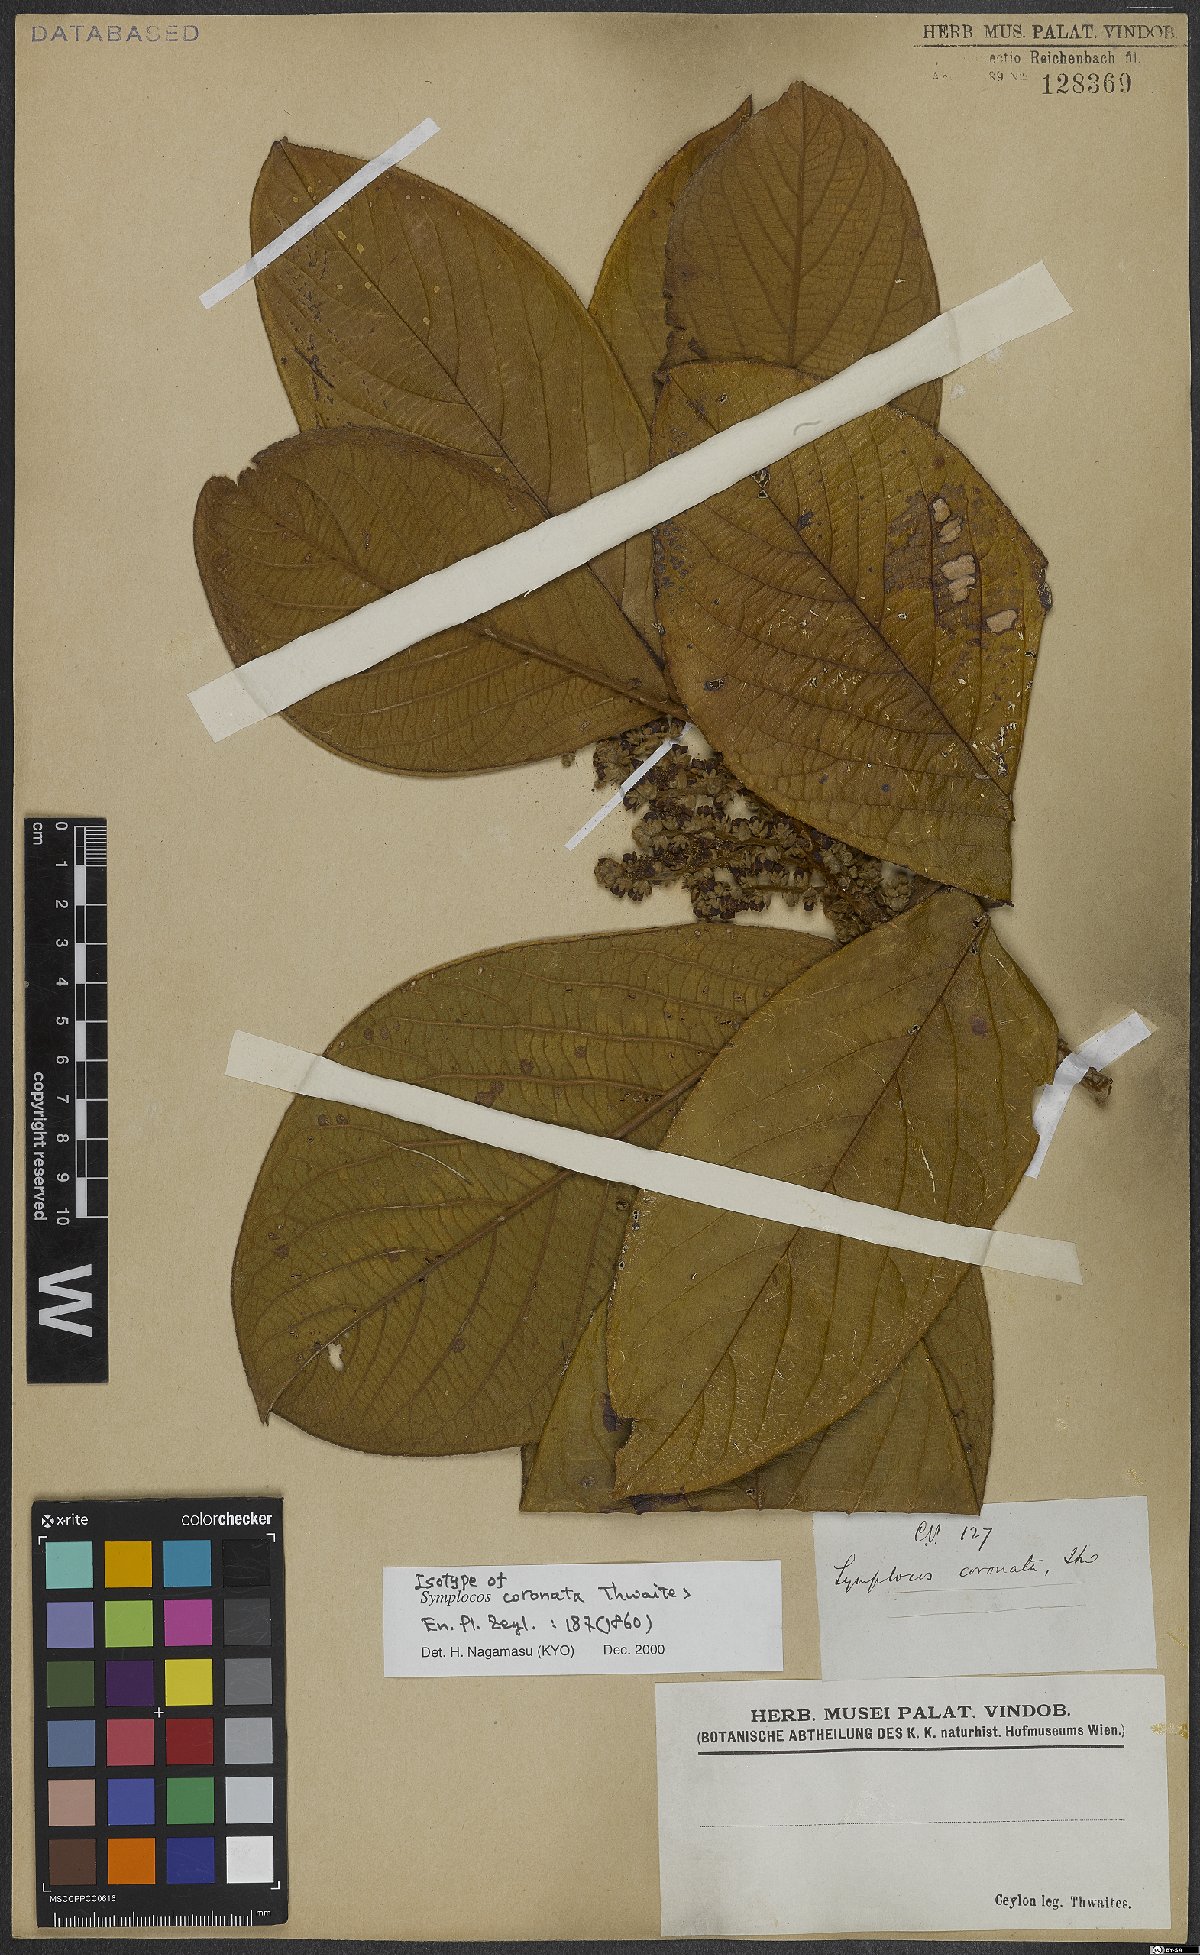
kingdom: Plantae
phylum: Tracheophyta
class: Magnoliopsida
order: Ericales
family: Symplocaceae
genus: Symplocos
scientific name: Symplocos coronata
